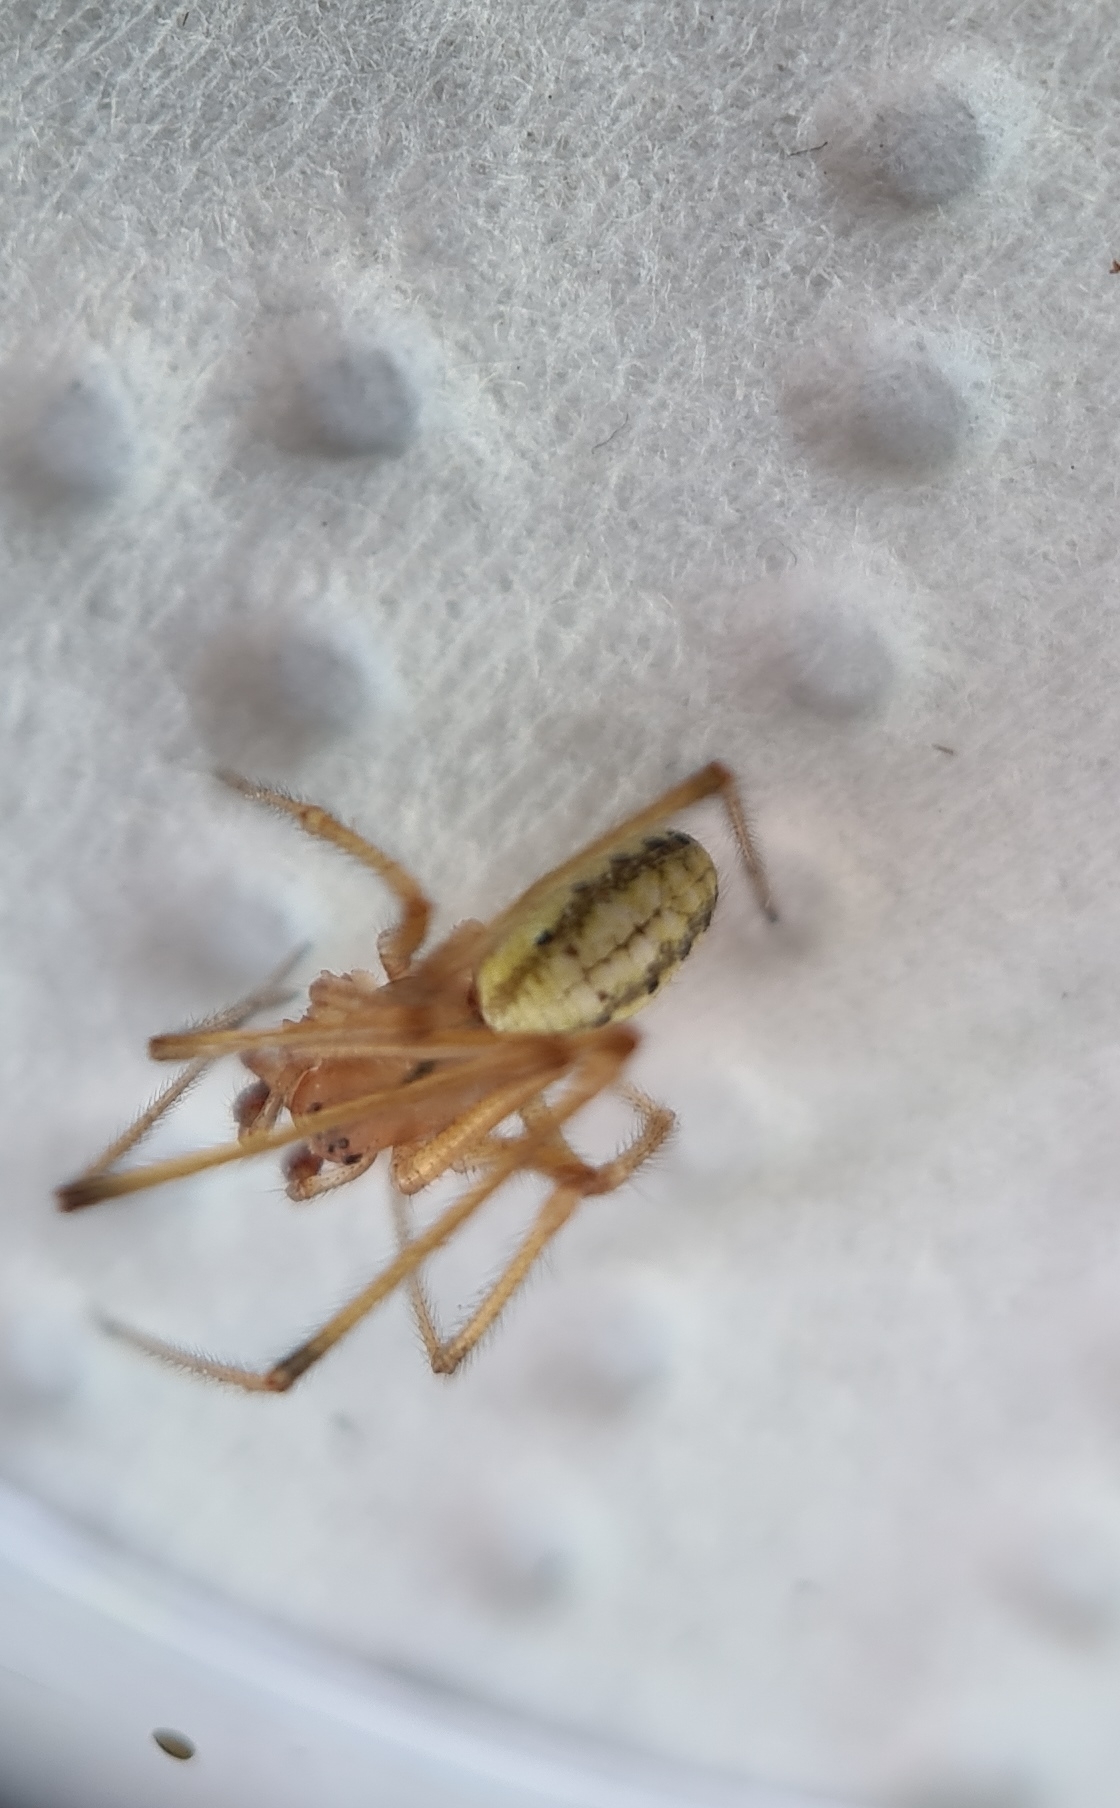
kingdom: Animalia
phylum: Arthropoda
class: Arachnida
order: Araneae
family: Theridiidae
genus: Enoplognatha
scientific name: Enoplognatha
